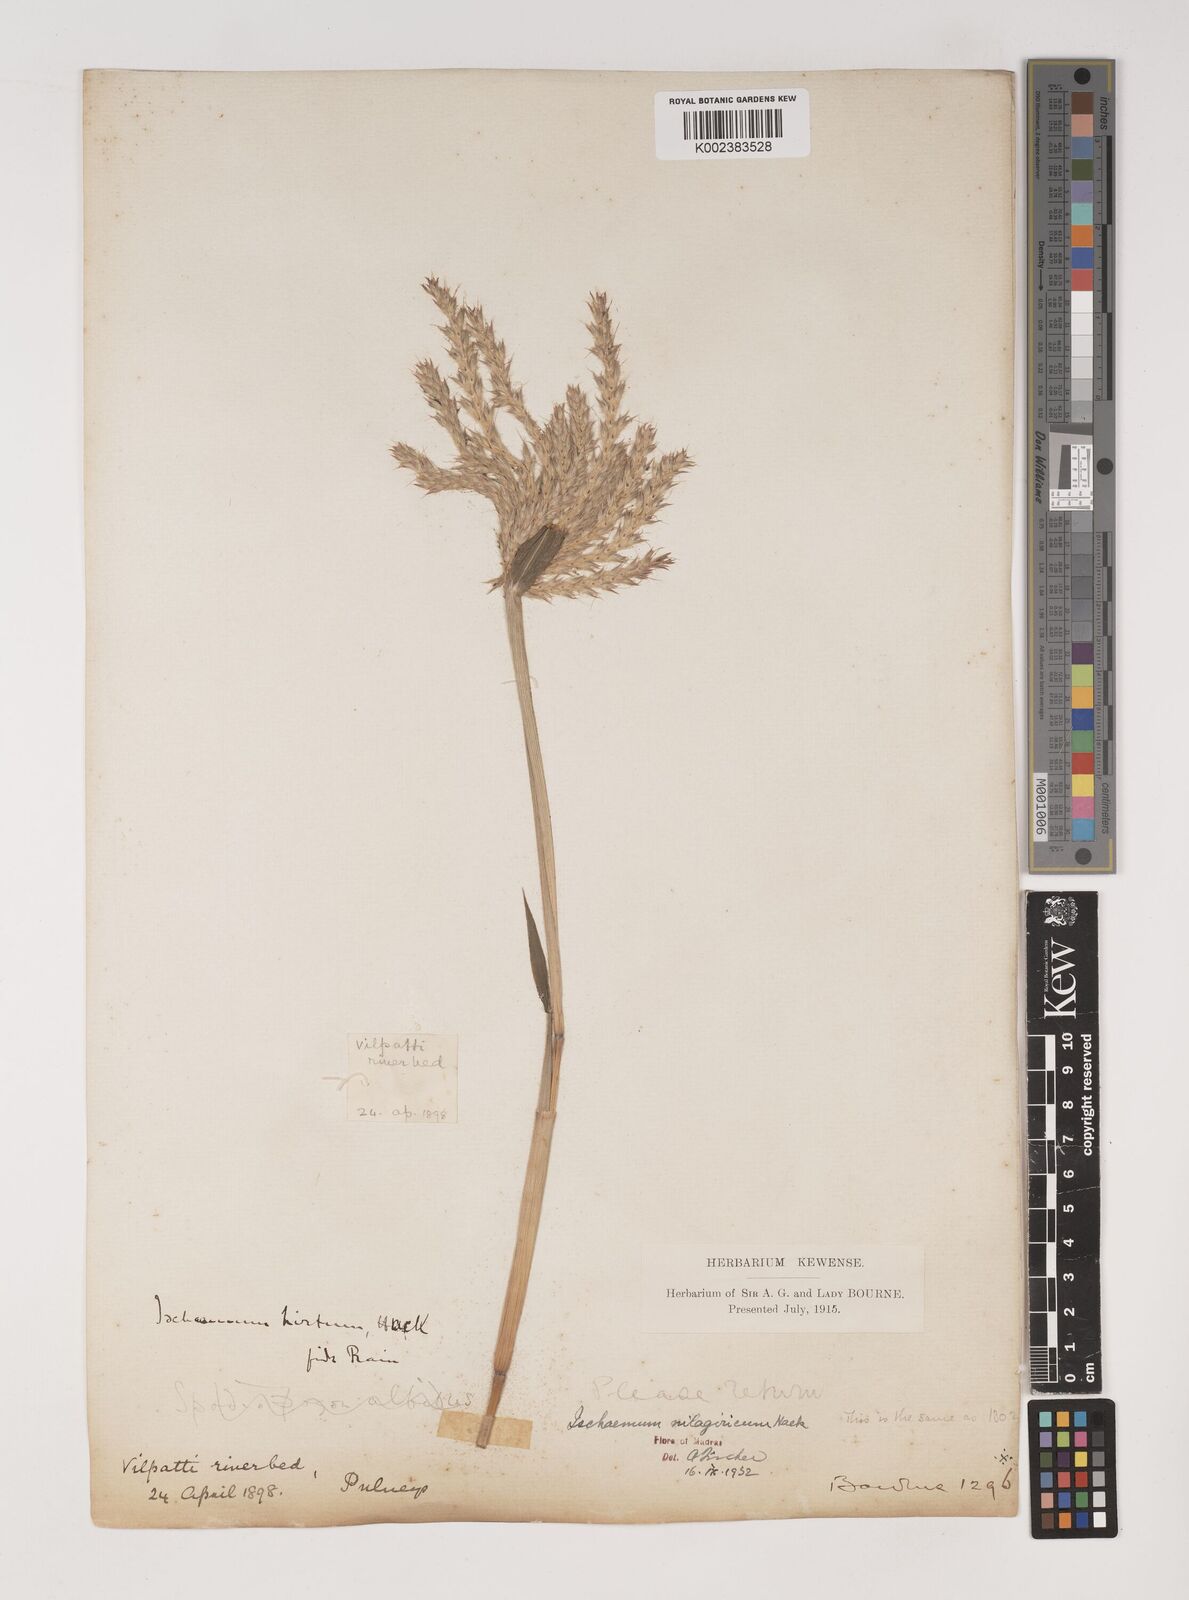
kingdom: Plantae
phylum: Tracheophyta
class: Liliopsida
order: Poales
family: Poaceae
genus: Ischaemum
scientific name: Ischaemum
